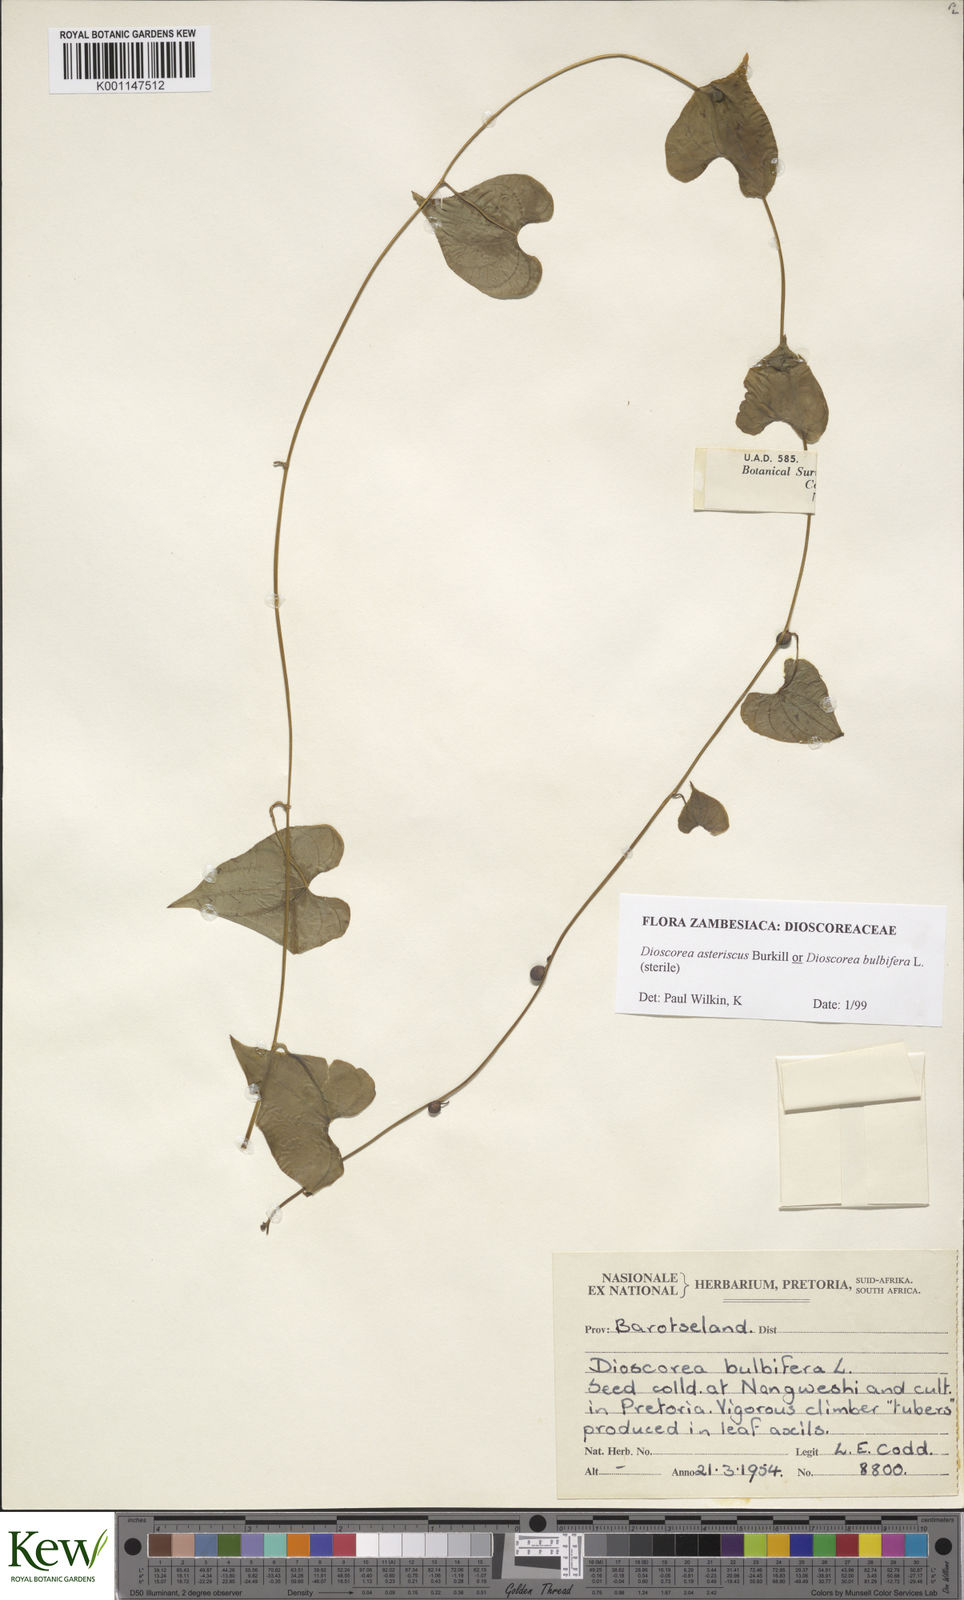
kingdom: Plantae
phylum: Tracheophyta
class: Liliopsida
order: Dioscoreales
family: Dioscoreaceae
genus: Dioscorea
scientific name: Dioscorea bulbifera
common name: Air yam
